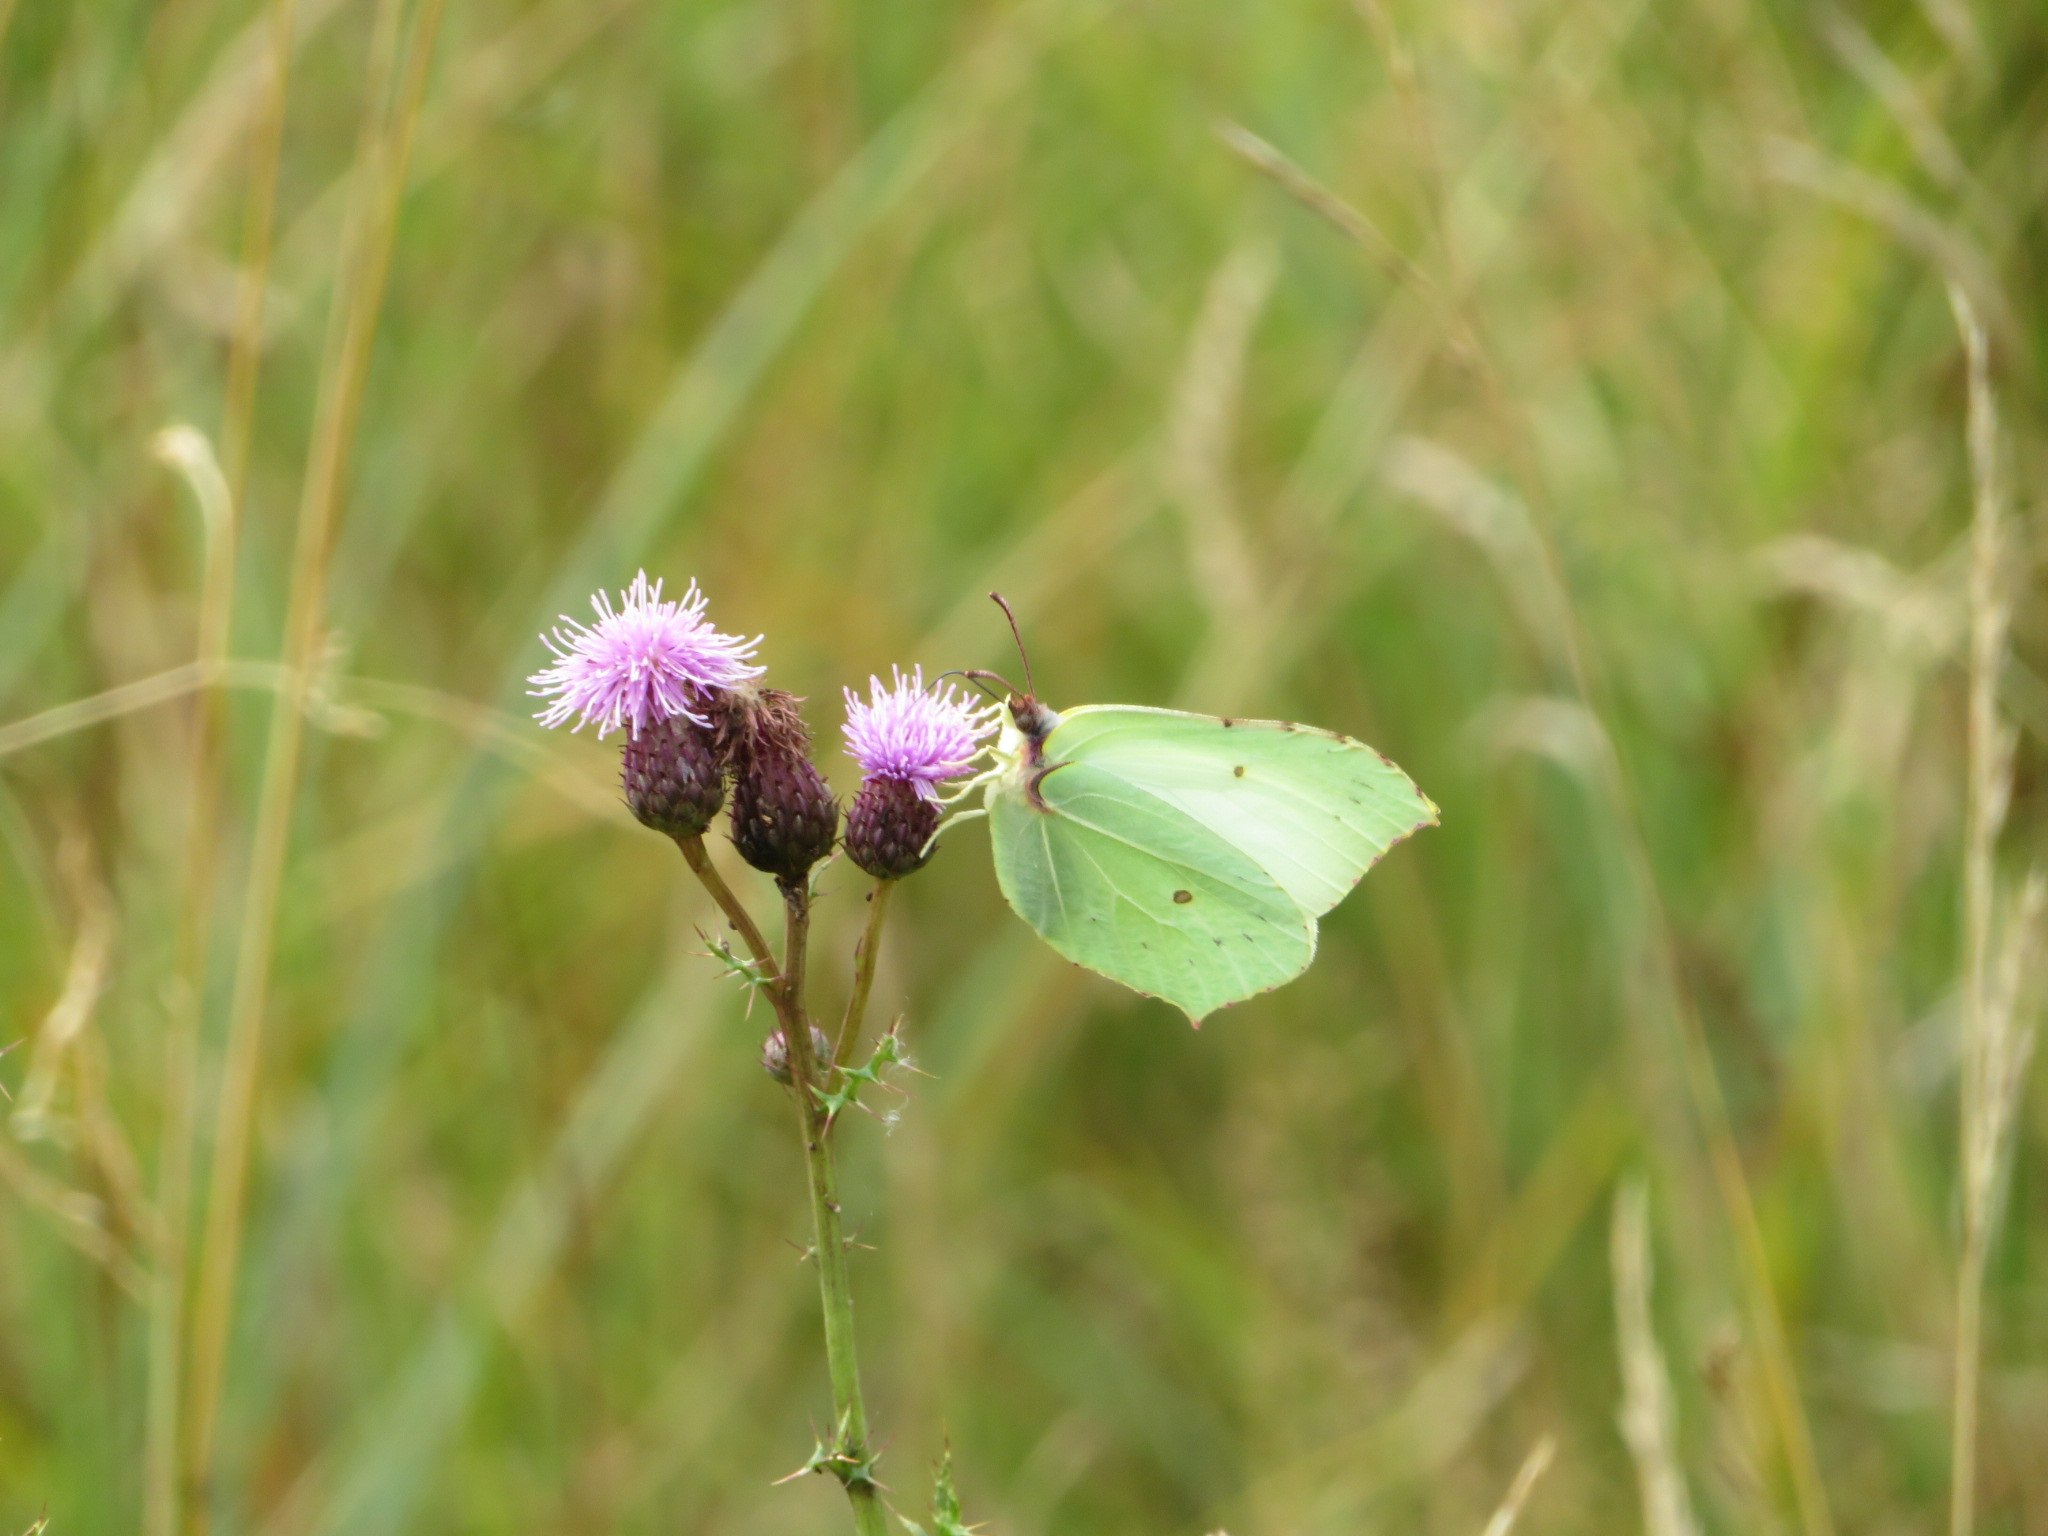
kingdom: Animalia
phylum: Arthropoda
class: Insecta
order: Lepidoptera
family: Pieridae
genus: Gonepteryx
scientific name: Gonepteryx rhamni
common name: Citronsommerfugl
